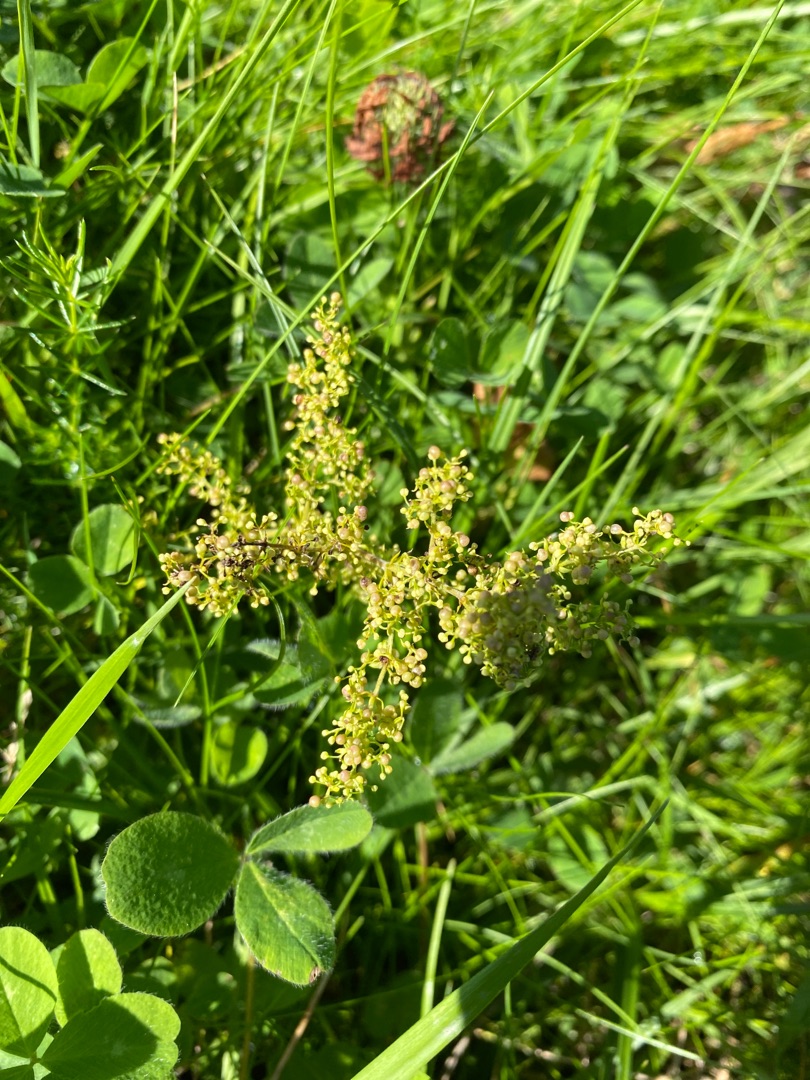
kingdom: Plantae
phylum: Tracheophyta
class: Magnoliopsida
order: Gentianales
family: Rubiaceae
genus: Galium
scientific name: Galium verum
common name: Gul snerre
